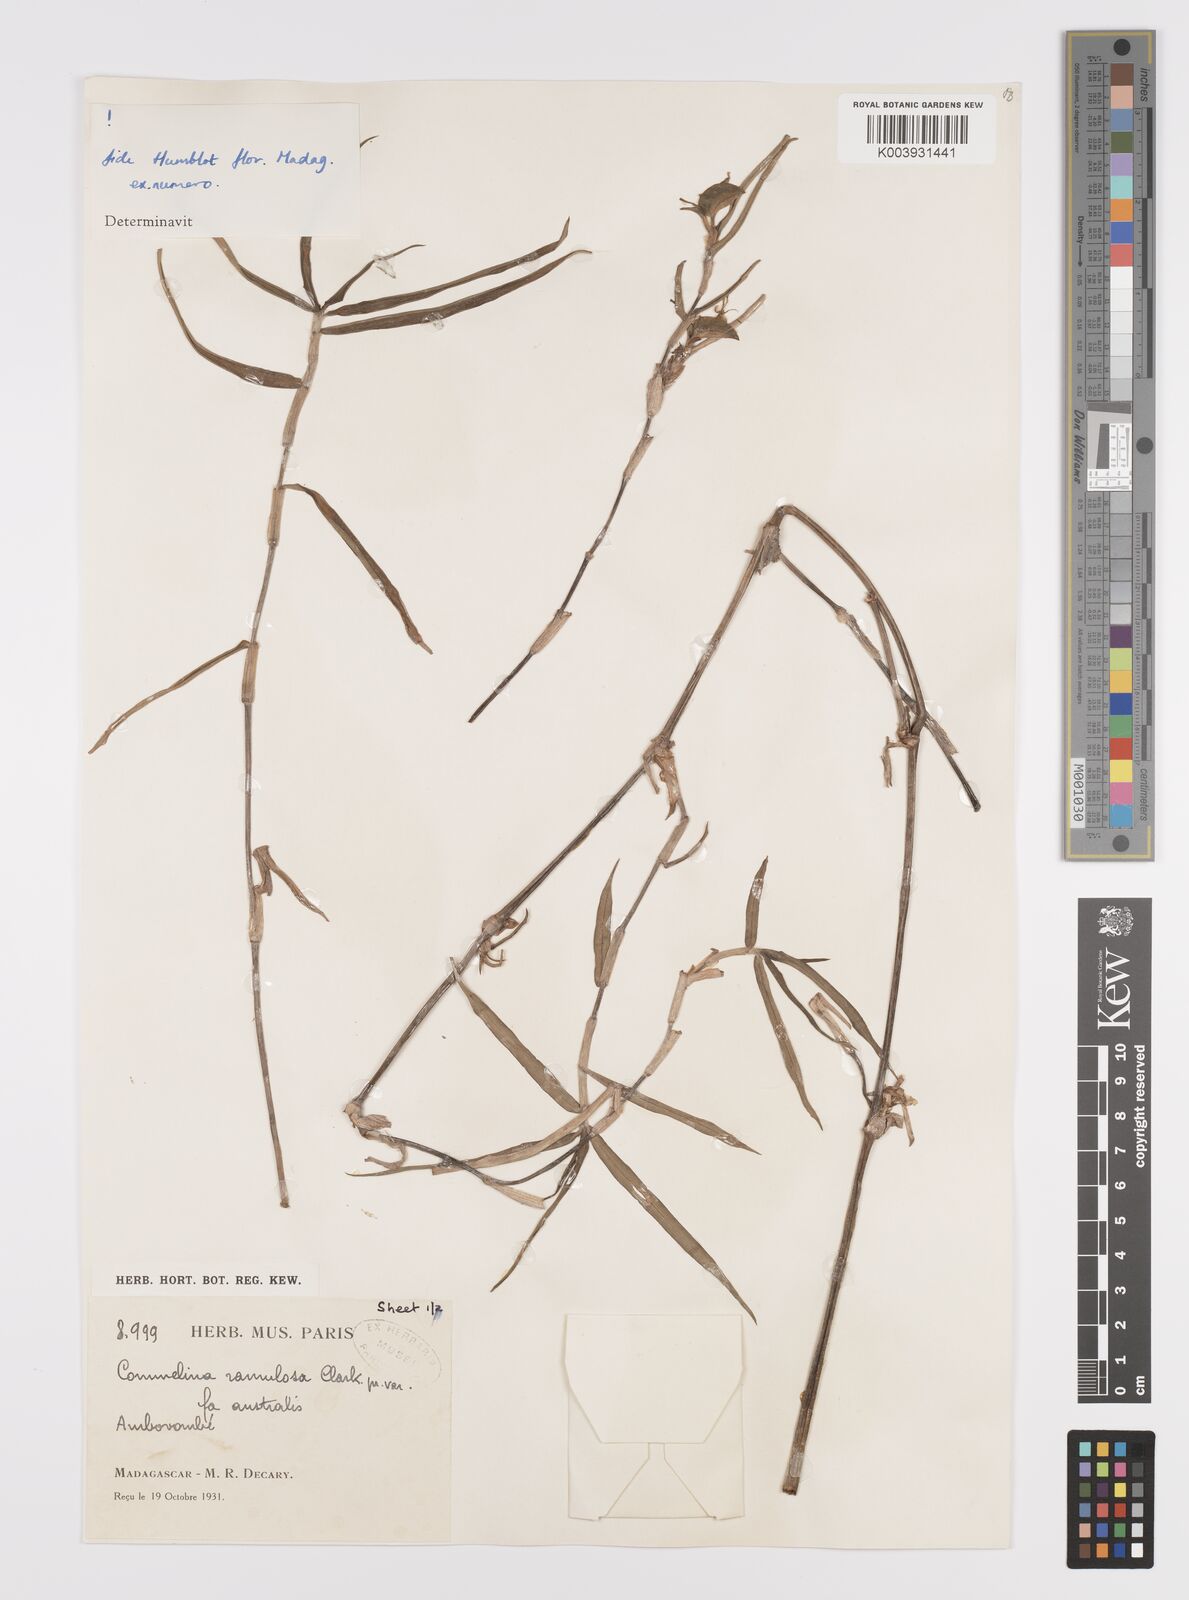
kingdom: Plantae
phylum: Tracheophyta
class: Liliopsida
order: Commelinales
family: Commelinaceae
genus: Commelina
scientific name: Commelina ramulosa
